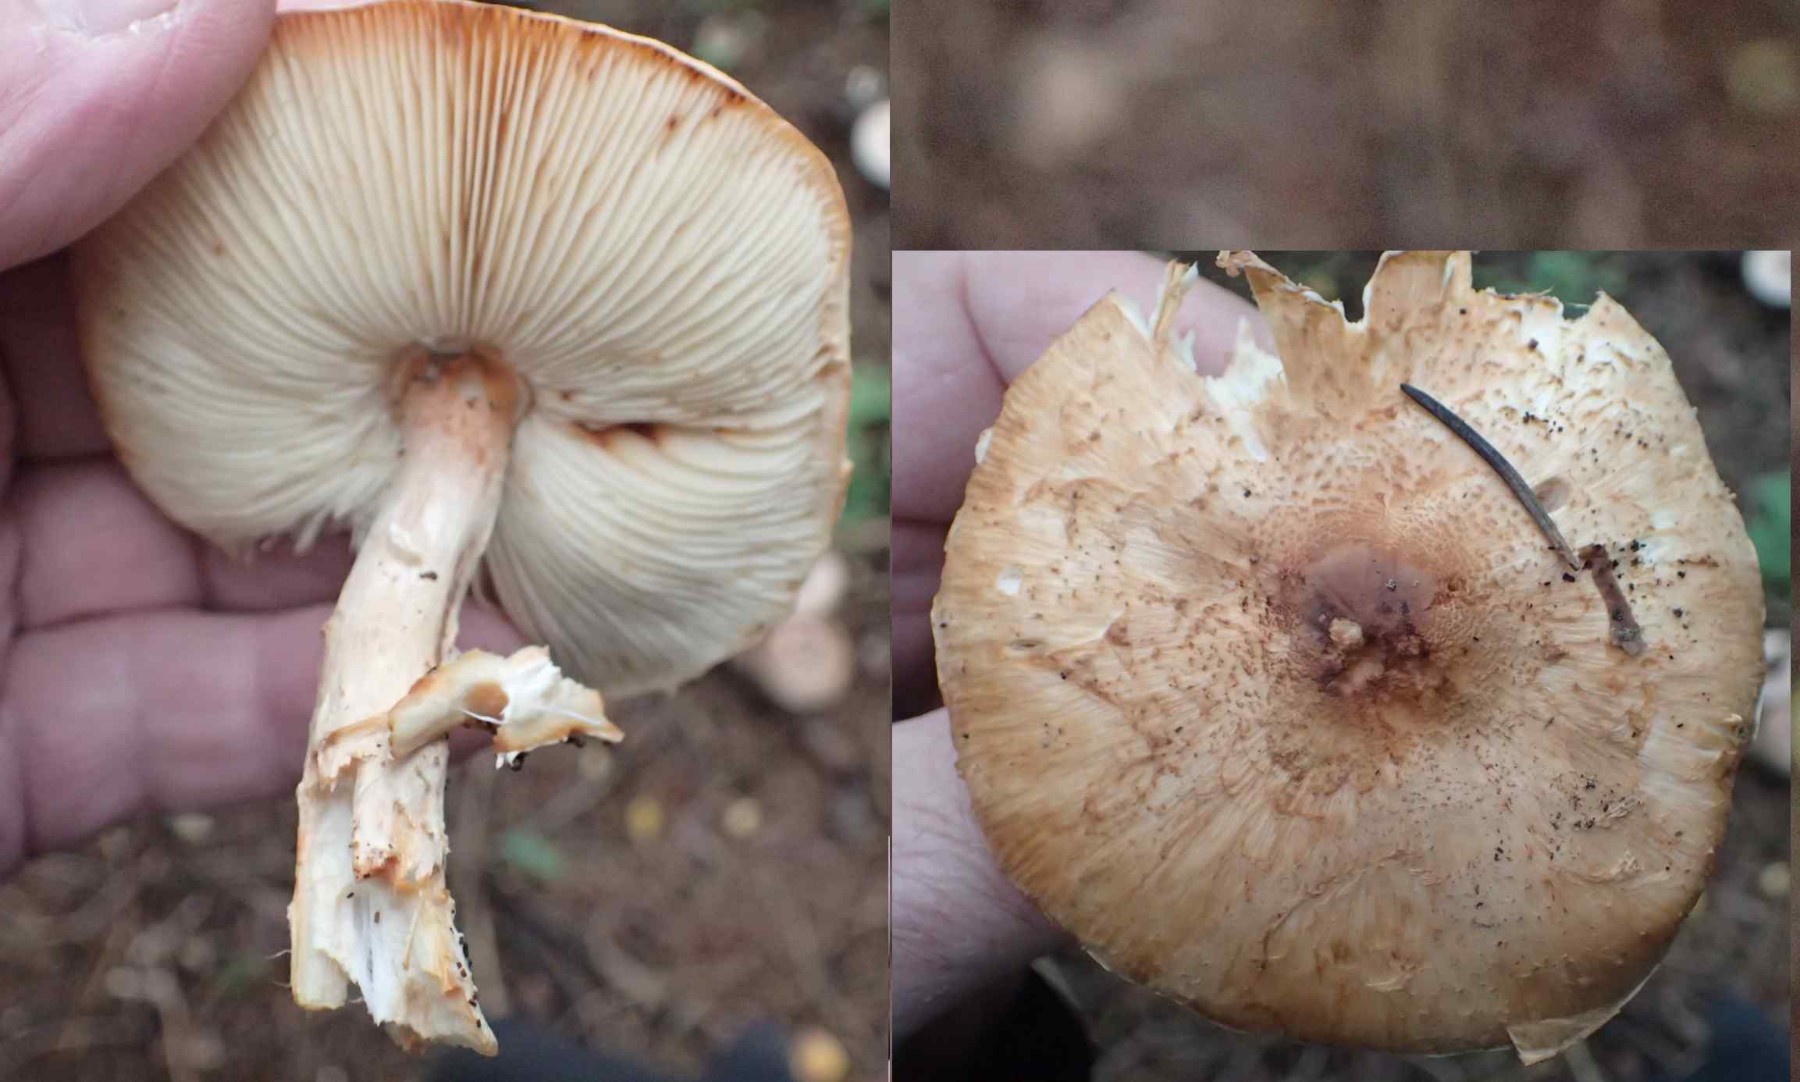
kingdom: Fungi
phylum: Basidiomycota
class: Agaricomycetes
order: Agaricales
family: Agaricaceae
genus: Lepiota
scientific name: Lepiota ochraceofulva
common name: sødtduftende parasolhat
